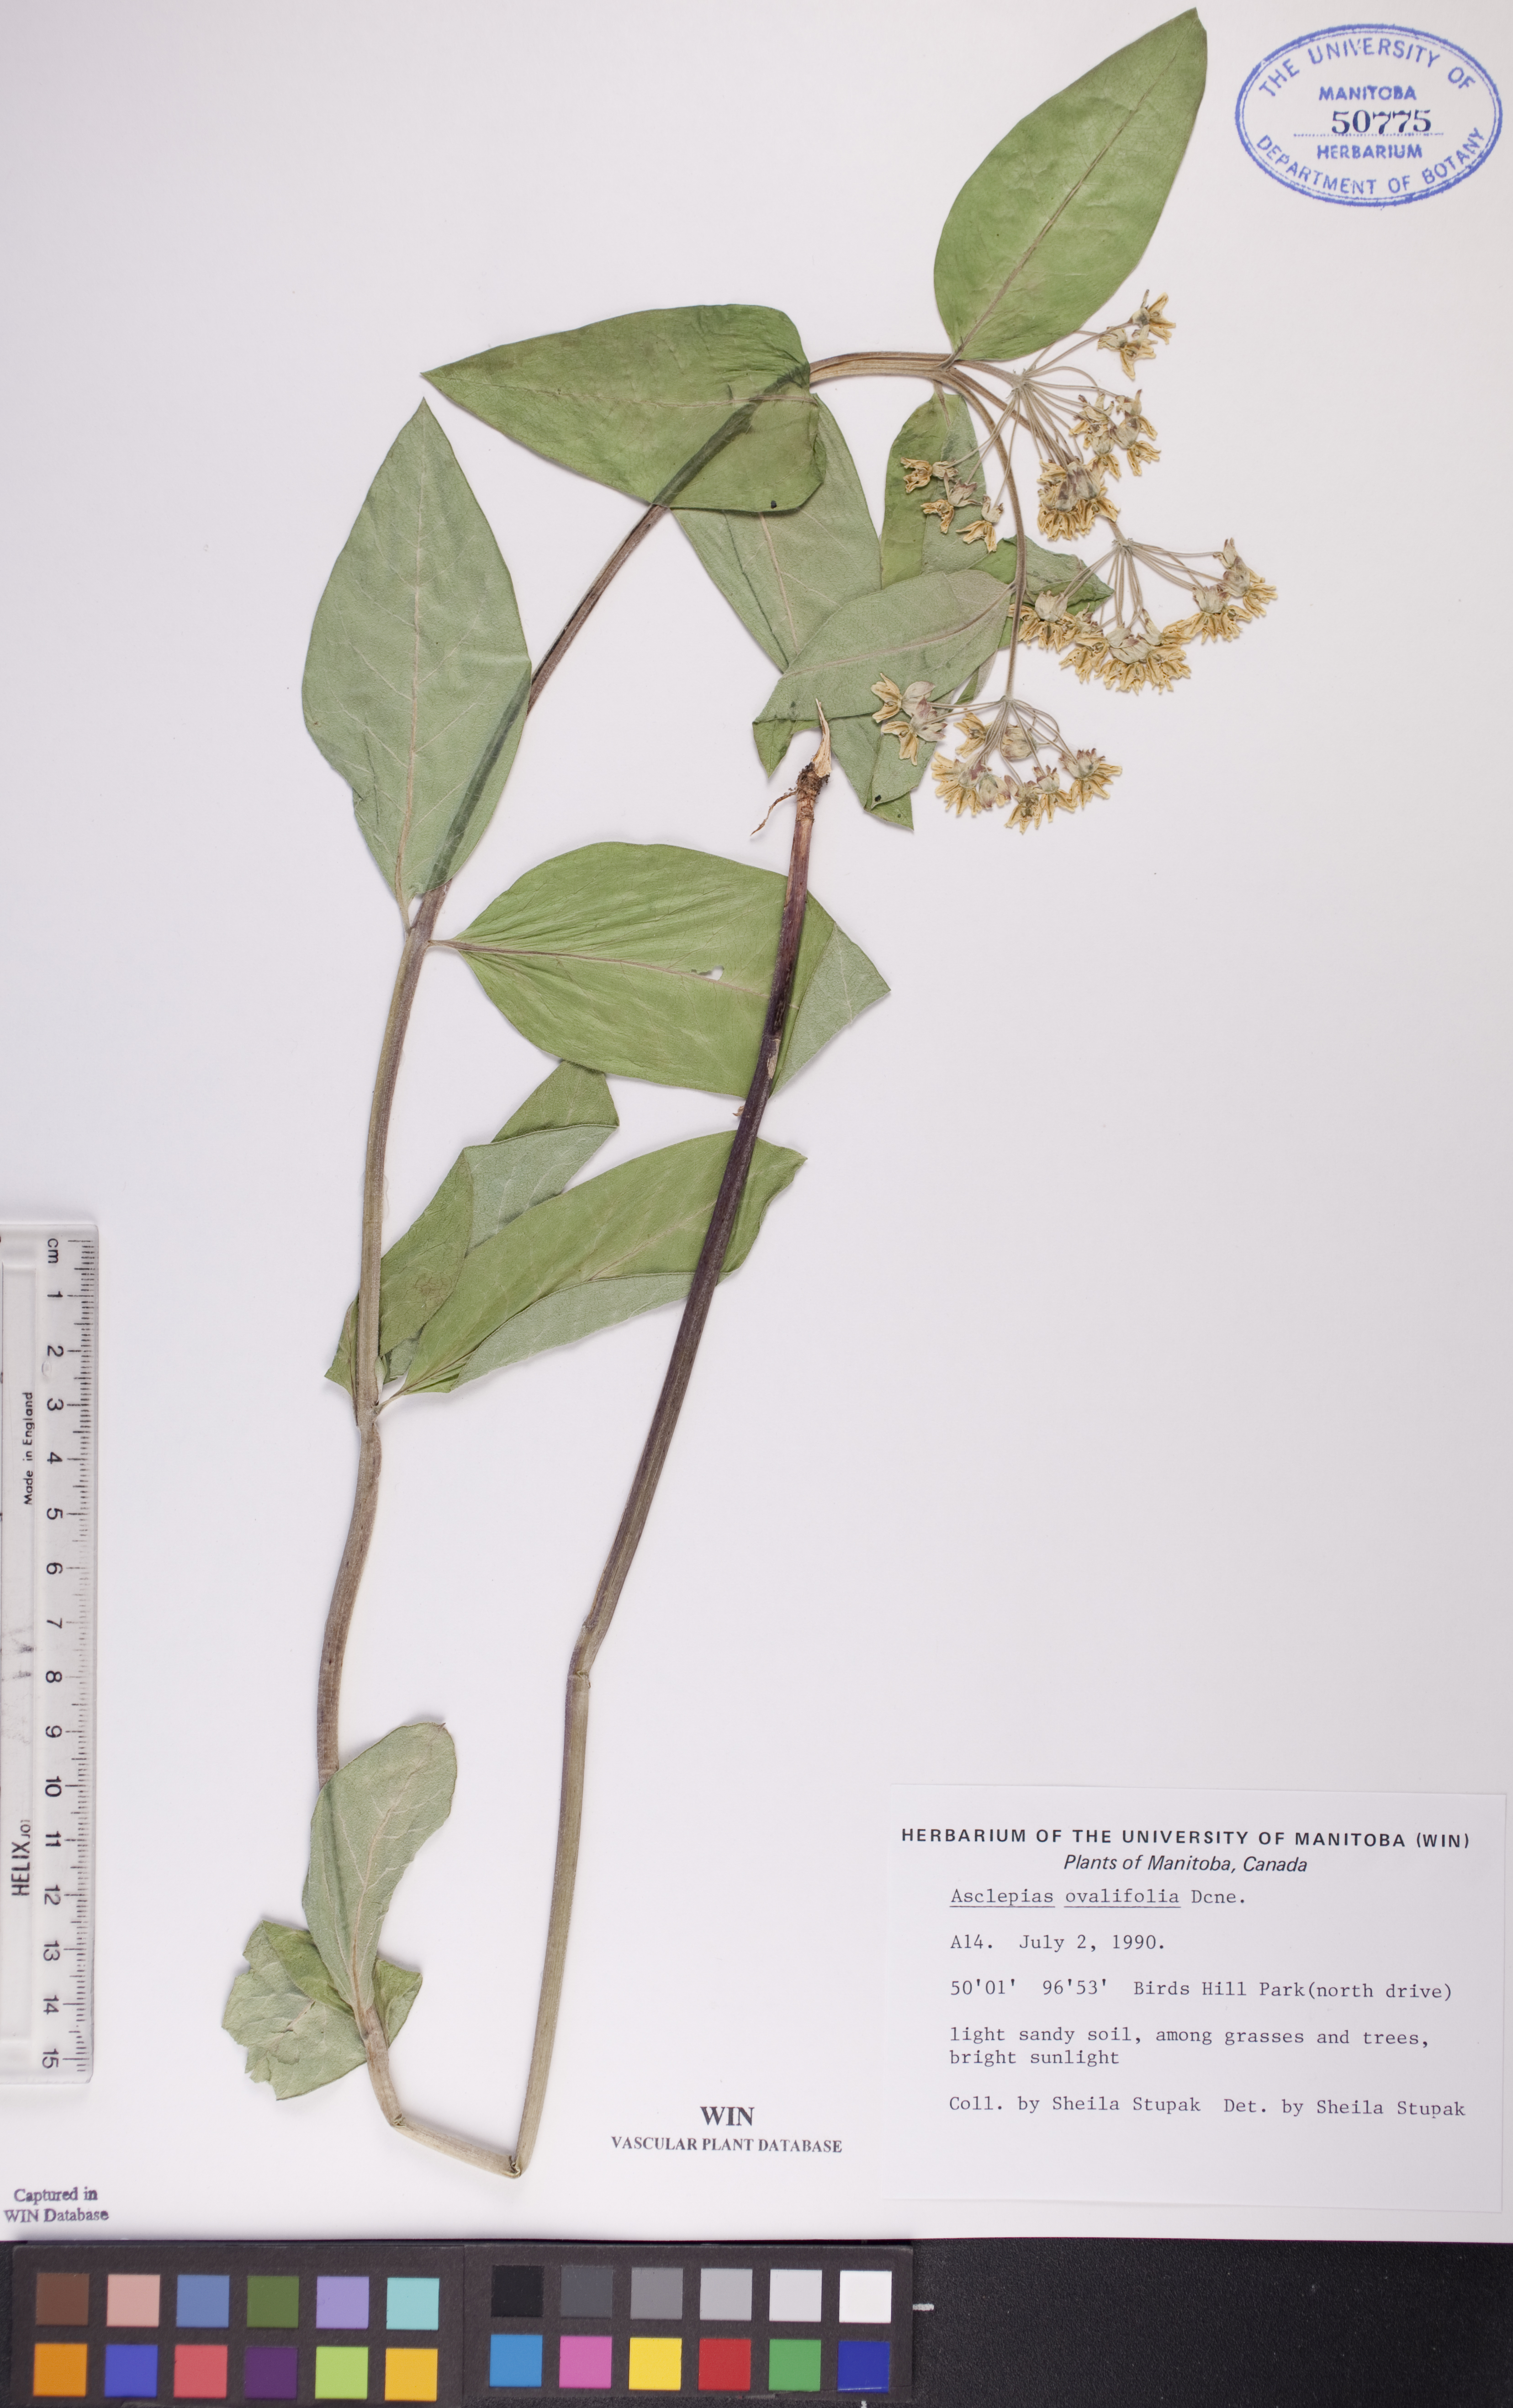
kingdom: Plantae
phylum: Tracheophyta
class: Magnoliopsida
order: Gentianales
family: Apocynaceae
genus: Asclepias
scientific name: Asclepias ovalifolia
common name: Dwarf milkweed
